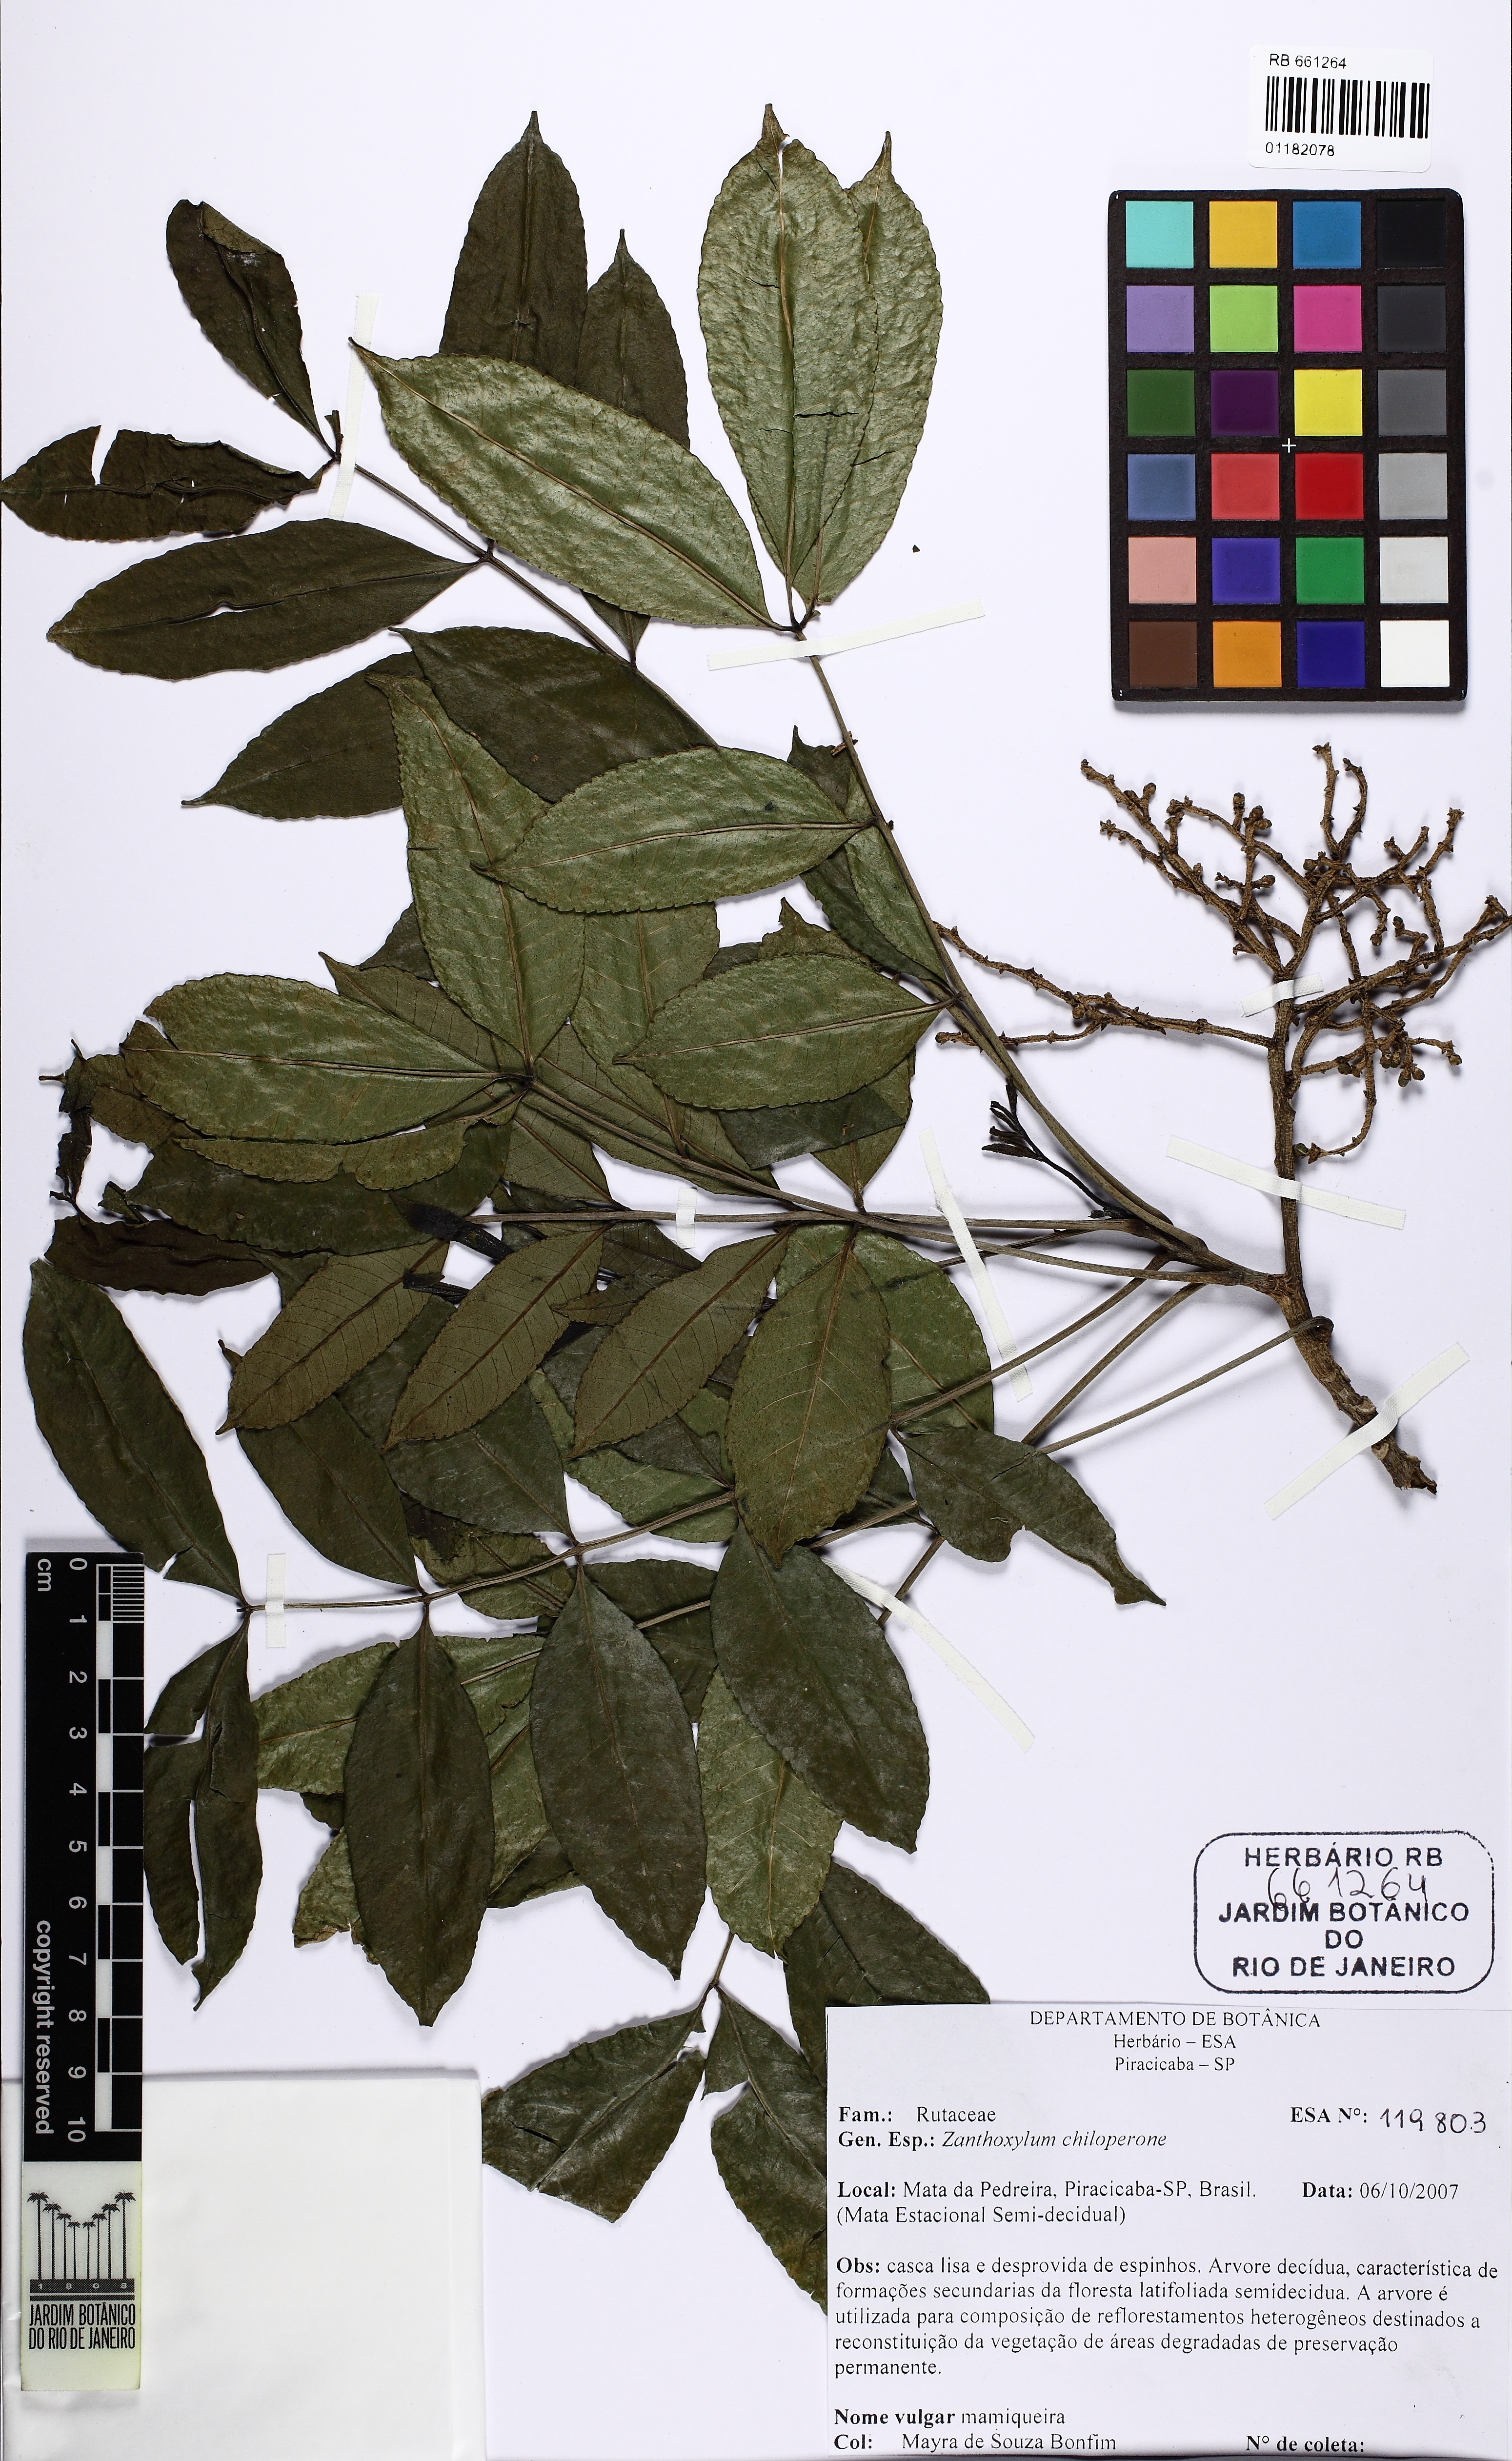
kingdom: Plantae
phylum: Tracheophyta
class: Magnoliopsida
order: Sapindales
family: Rutaceae
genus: Zanthoxylum
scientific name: Zanthoxylum caribaeum
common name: Prickly yellow
